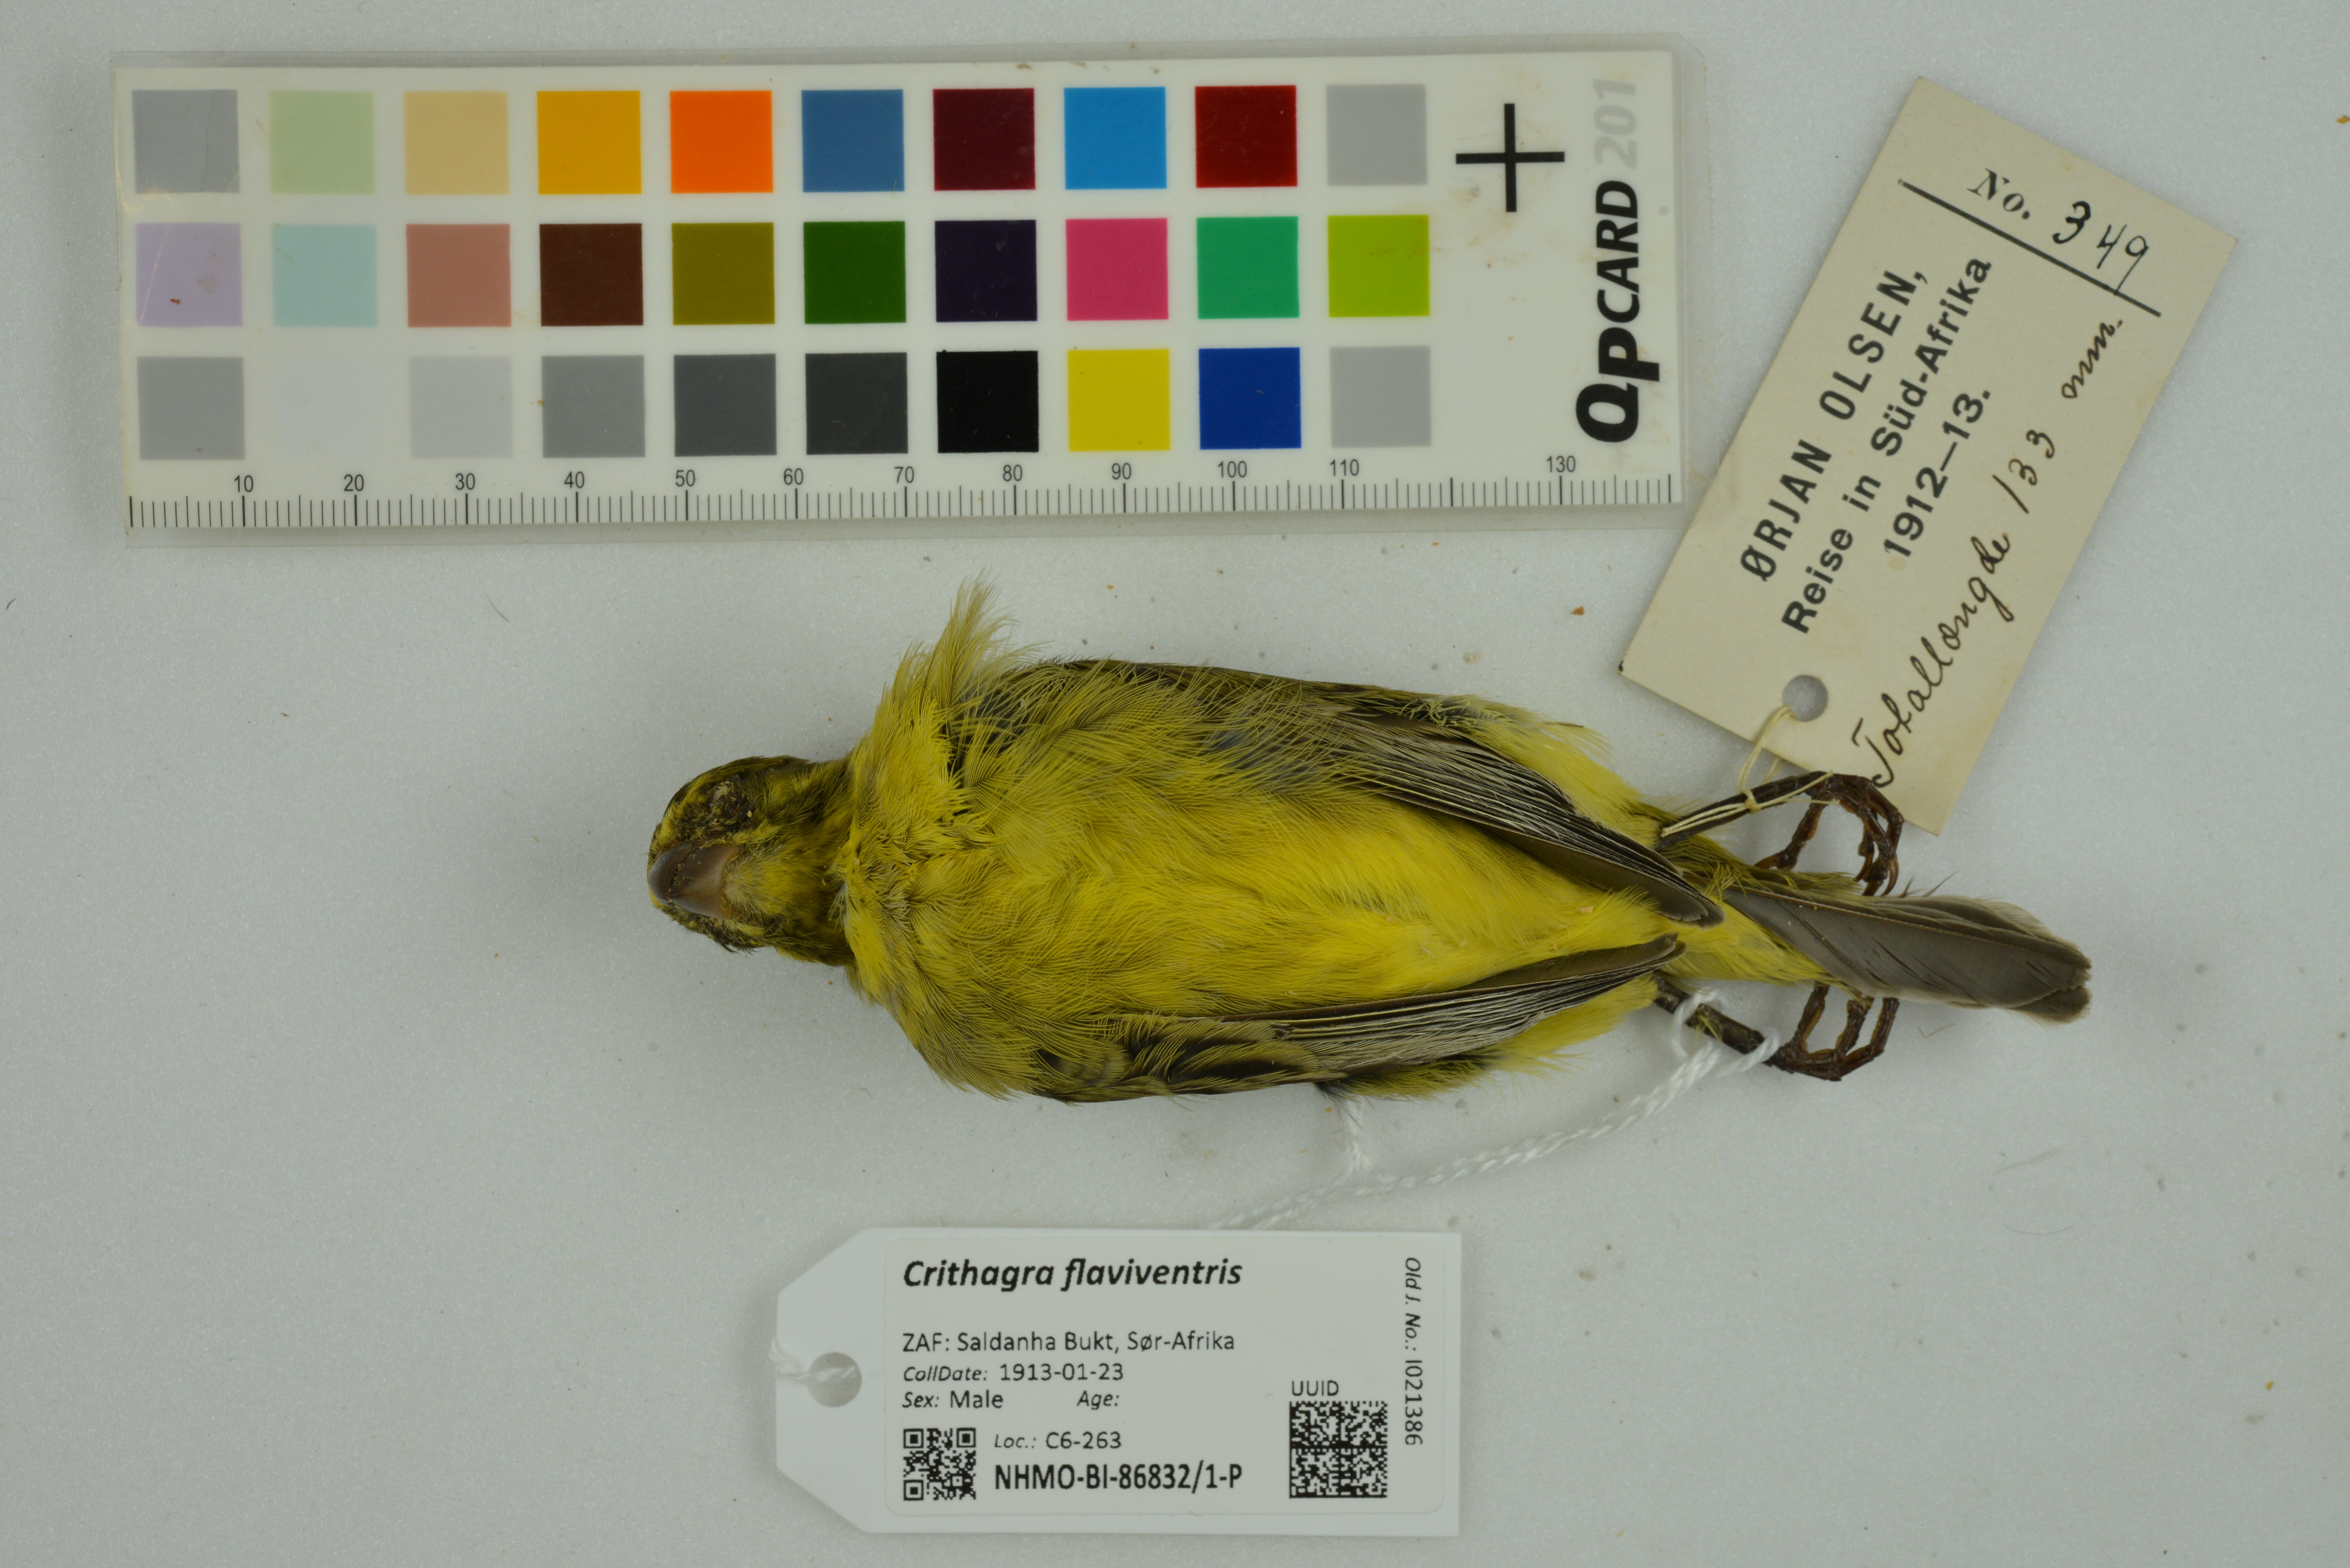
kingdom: Animalia
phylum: Chordata
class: Aves
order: Passeriformes
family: Fringillidae
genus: Crithagra
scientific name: Crithagra flaviventris
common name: Yellow canary
